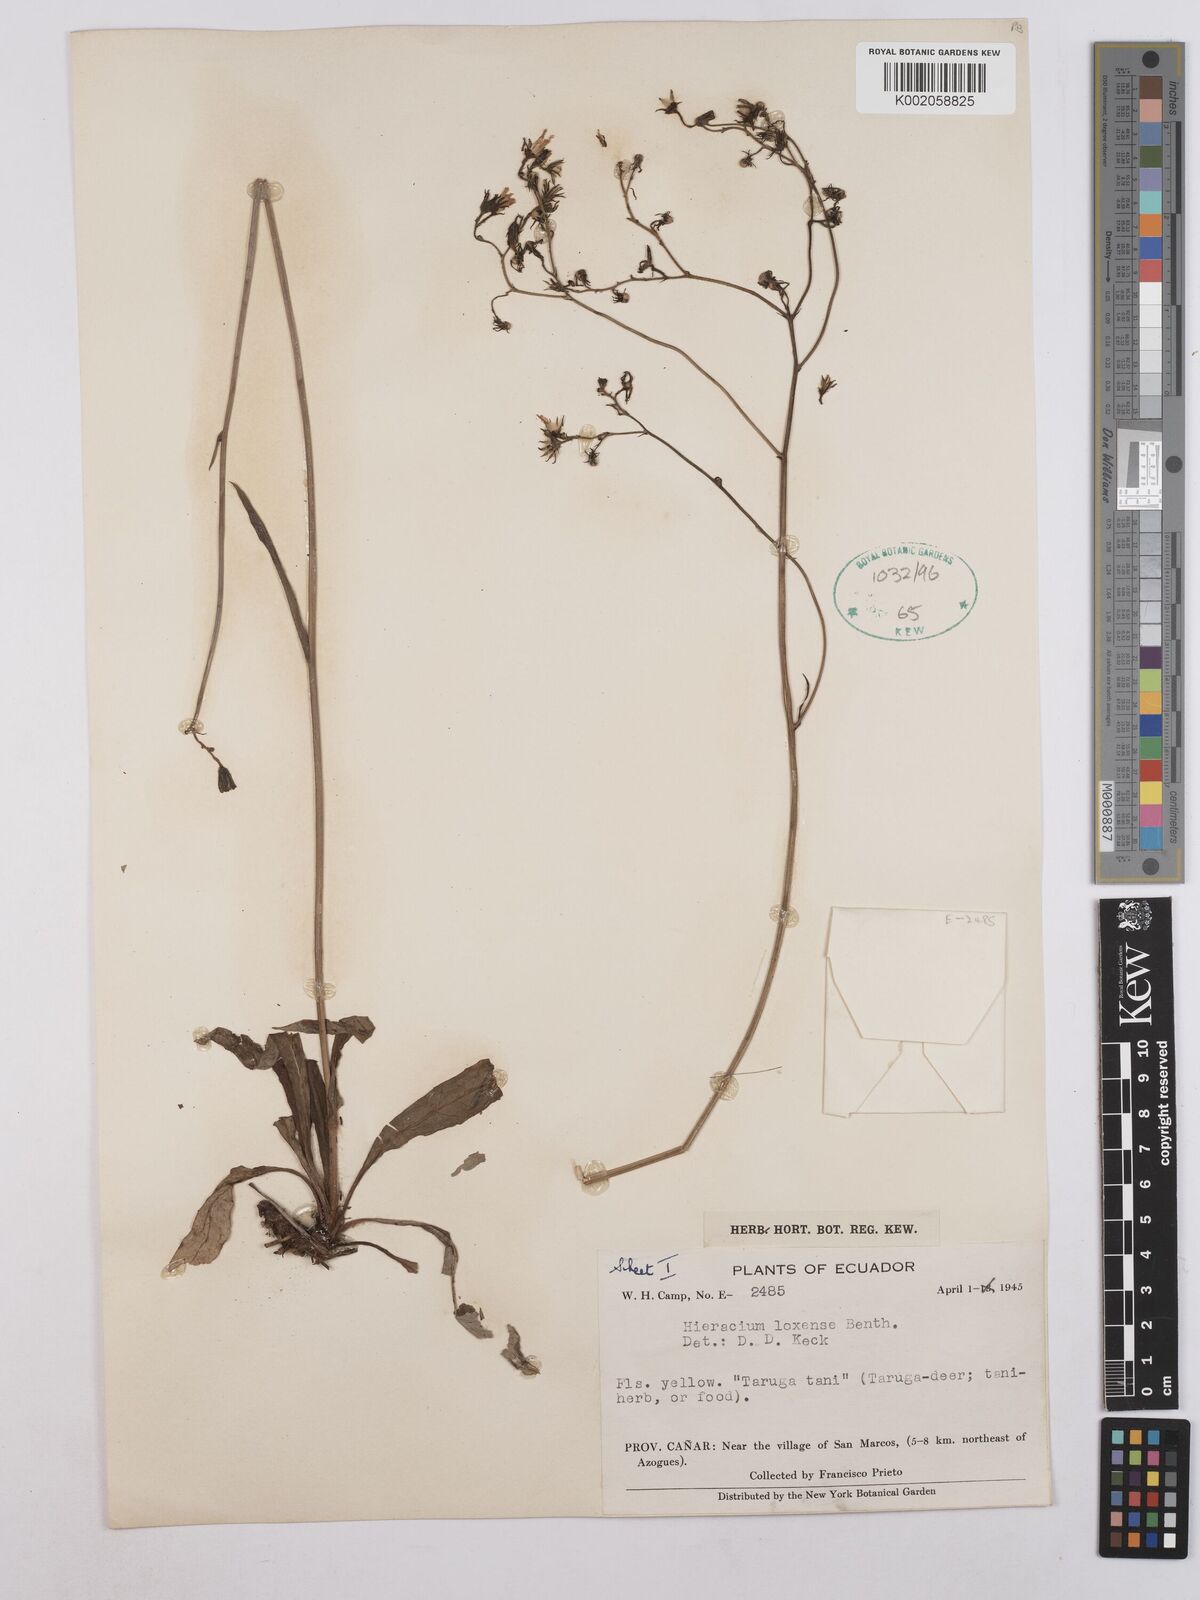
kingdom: Plantae
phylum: Tracheophyta
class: Magnoliopsida
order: Asterales
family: Asteraceae
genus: Hieracium
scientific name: Hieracium lagopus
